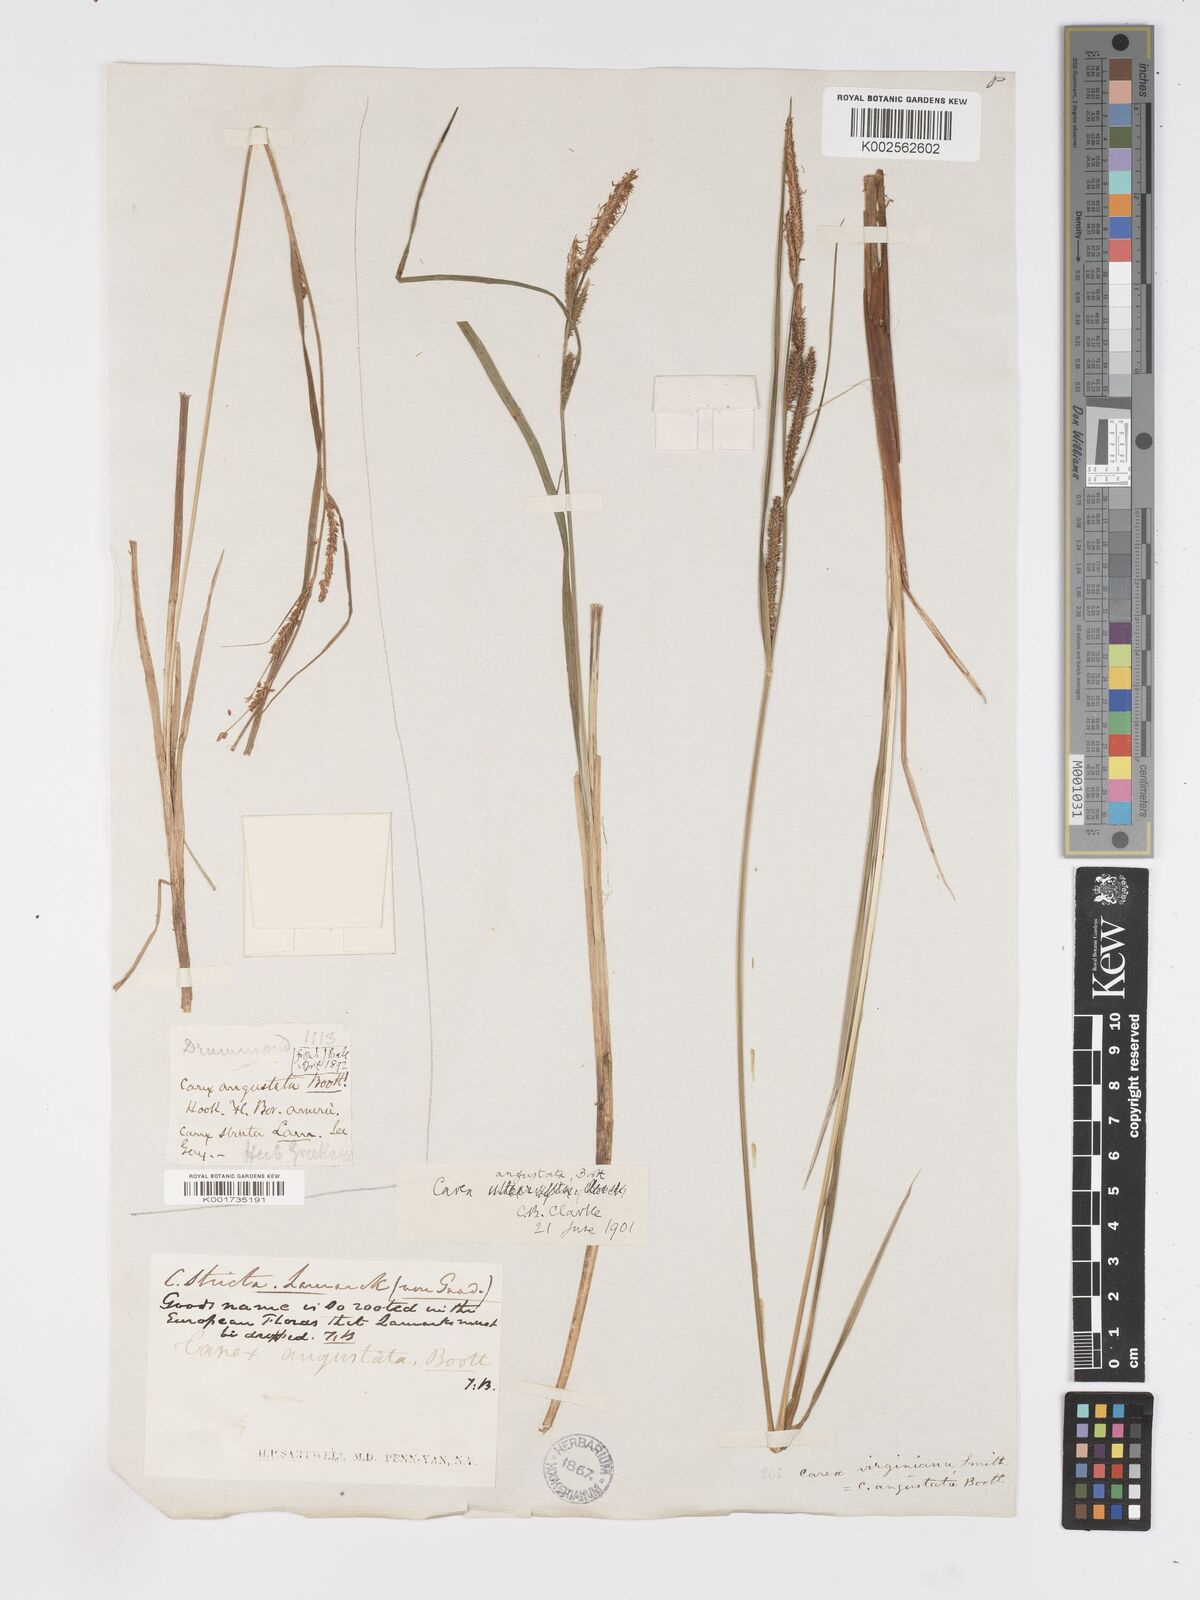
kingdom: Plantae
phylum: Tracheophyta
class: Liliopsida
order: Poales
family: Cyperaceae
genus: Carex
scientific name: Carex stricta
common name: Hummock sedge
